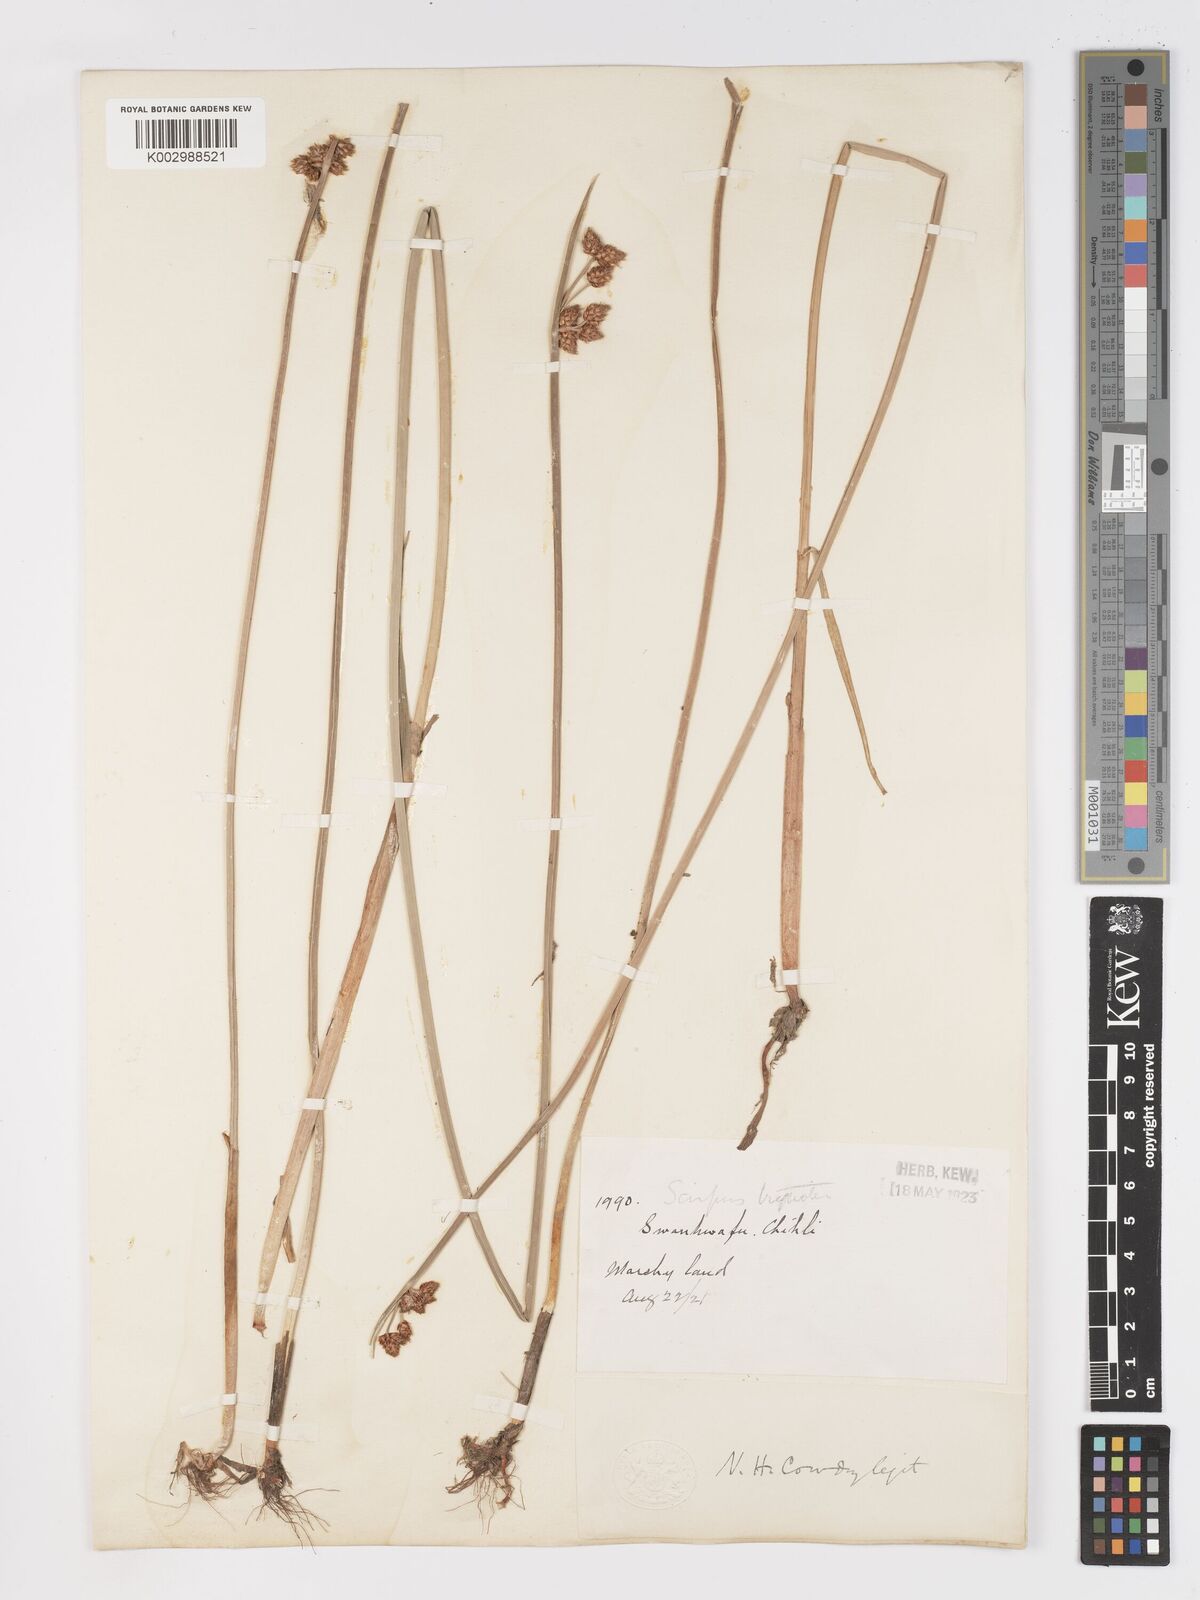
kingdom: Plantae
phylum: Tracheophyta
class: Liliopsida
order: Poales
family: Cyperaceae
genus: Schoenoplectus
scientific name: Schoenoplectus triqueter
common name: Triangular club-rush
